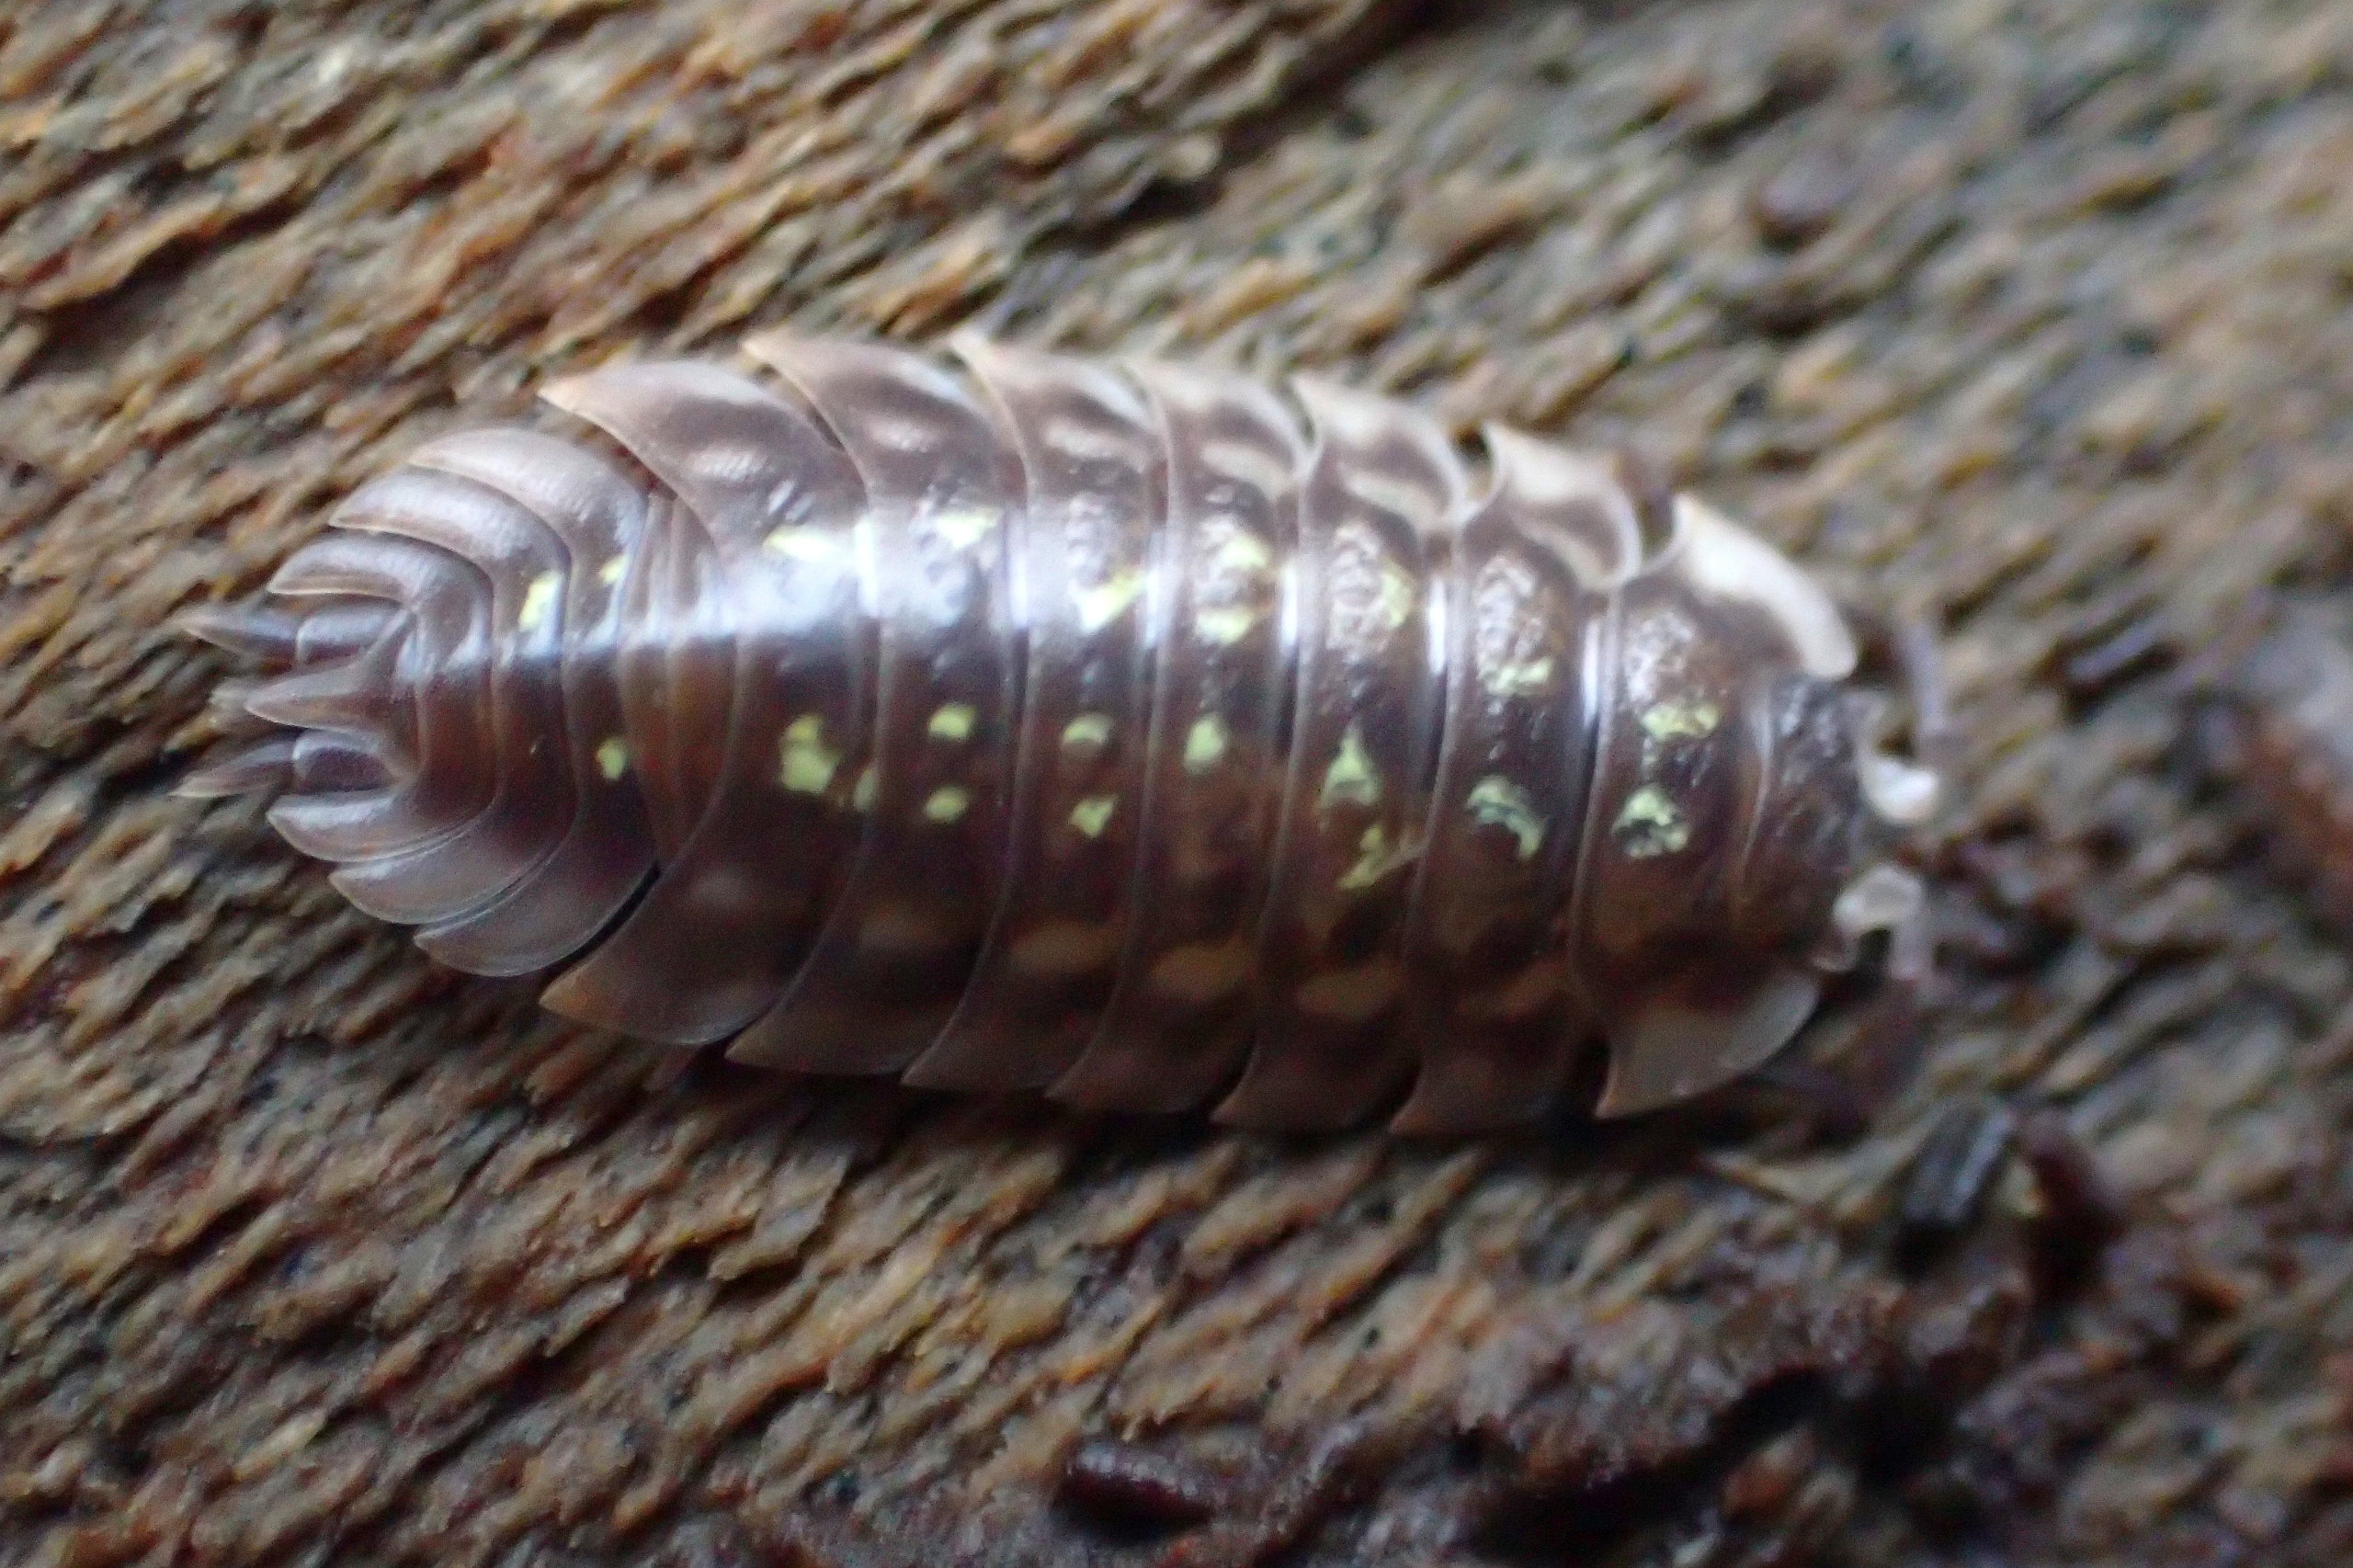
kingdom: Animalia
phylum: Arthropoda
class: Malacostraca
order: Isopoda
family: Oniscidae
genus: Oniscus
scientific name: Oniscus asellus
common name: Glat bænkebider
